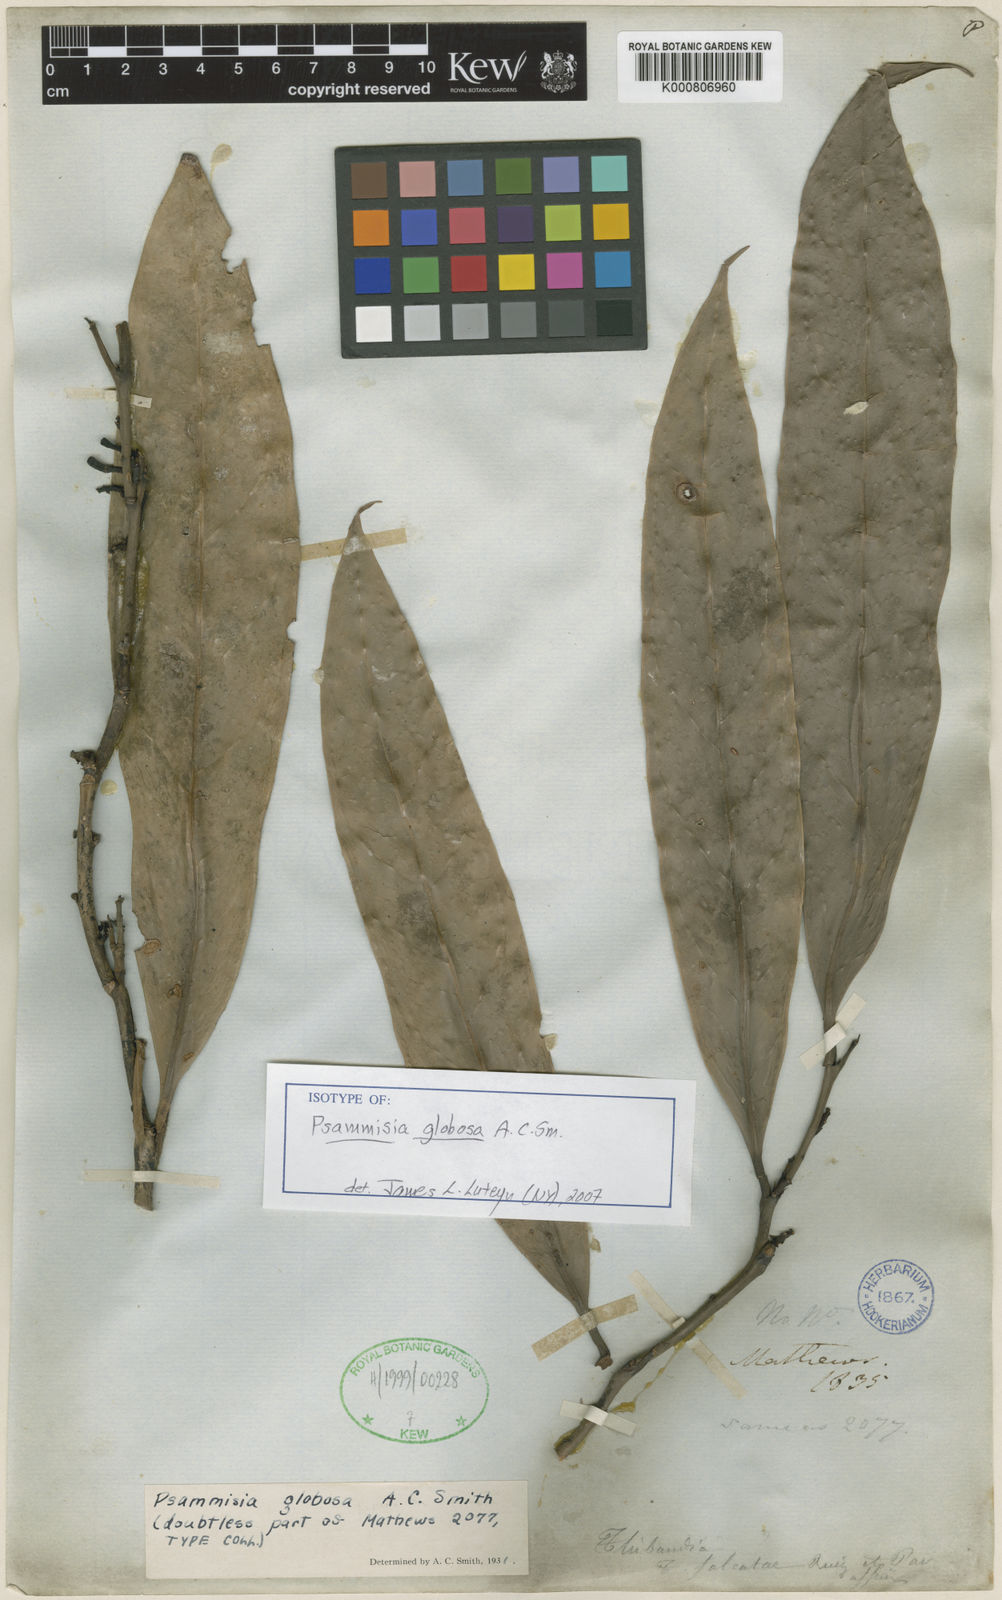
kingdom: Plantae
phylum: Tracheophyta
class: Magnoliopsida
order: Ericales
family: Ericaceae
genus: Psammisia
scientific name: Psammisia globosa
